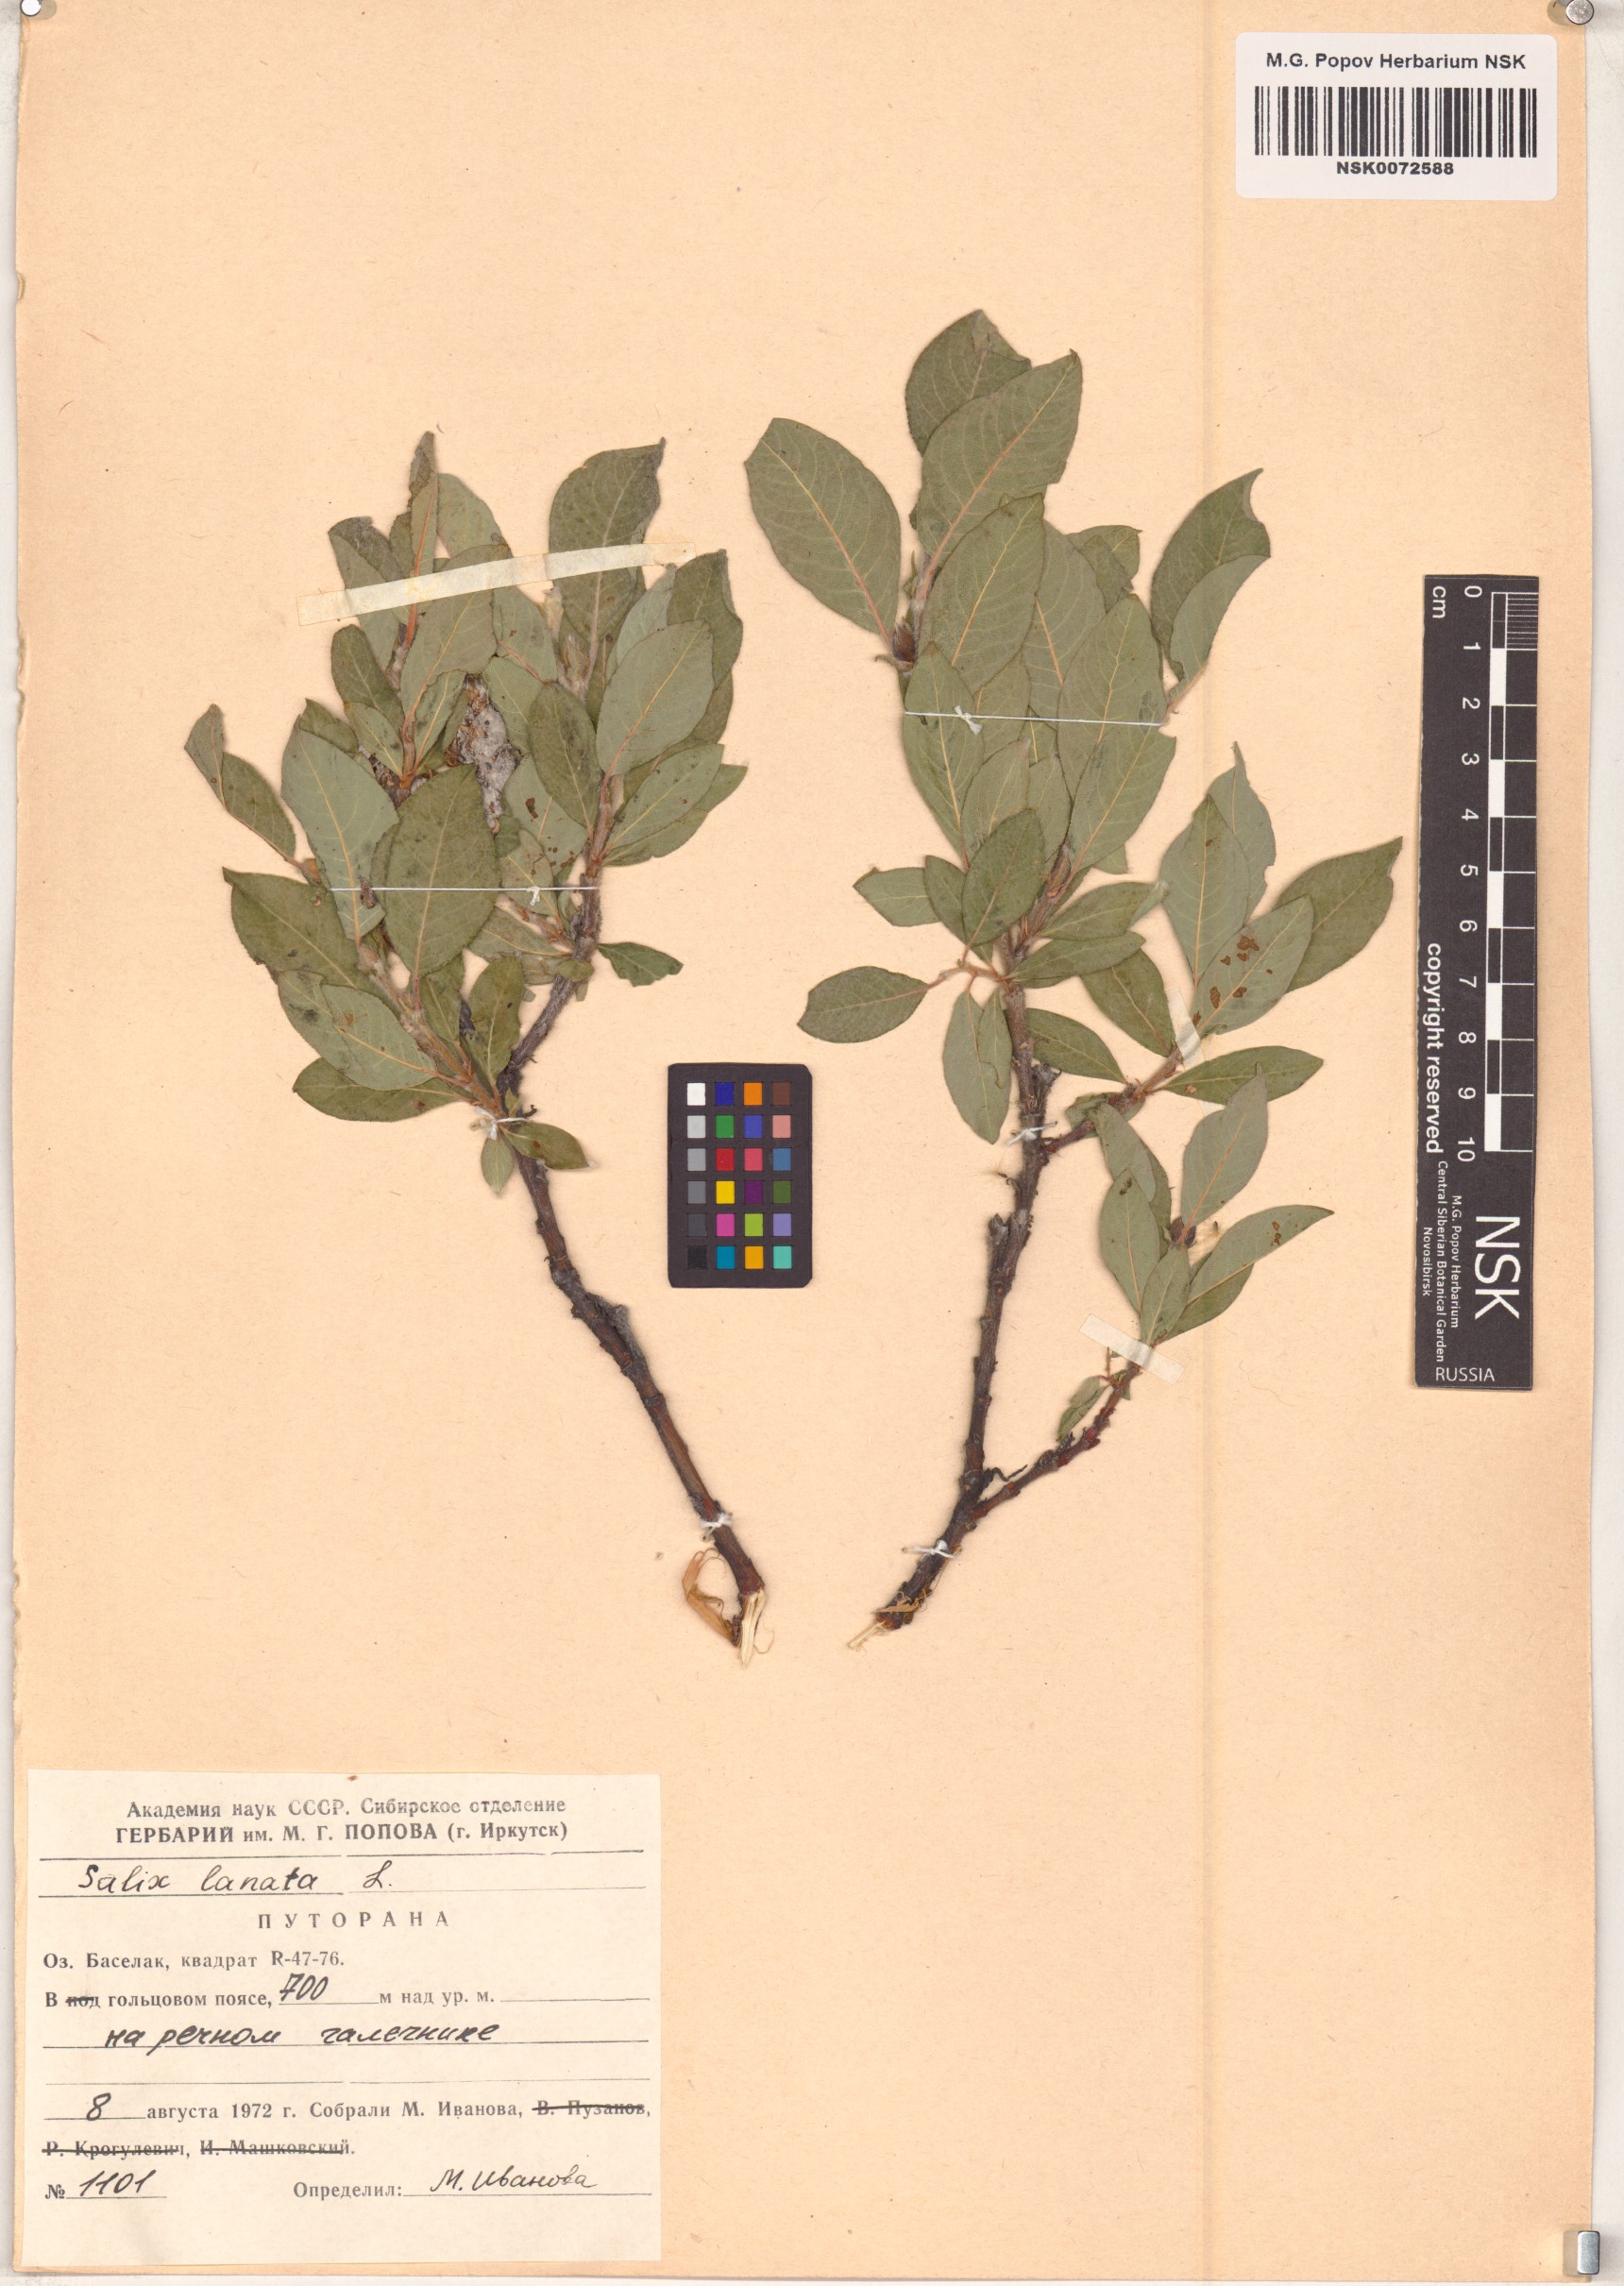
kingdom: Plantae
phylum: Tracheophyta
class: Magnoliopsida
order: Malpighiales
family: Salicaceae
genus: Salix
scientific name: Salix lanata
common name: Woolly willow
